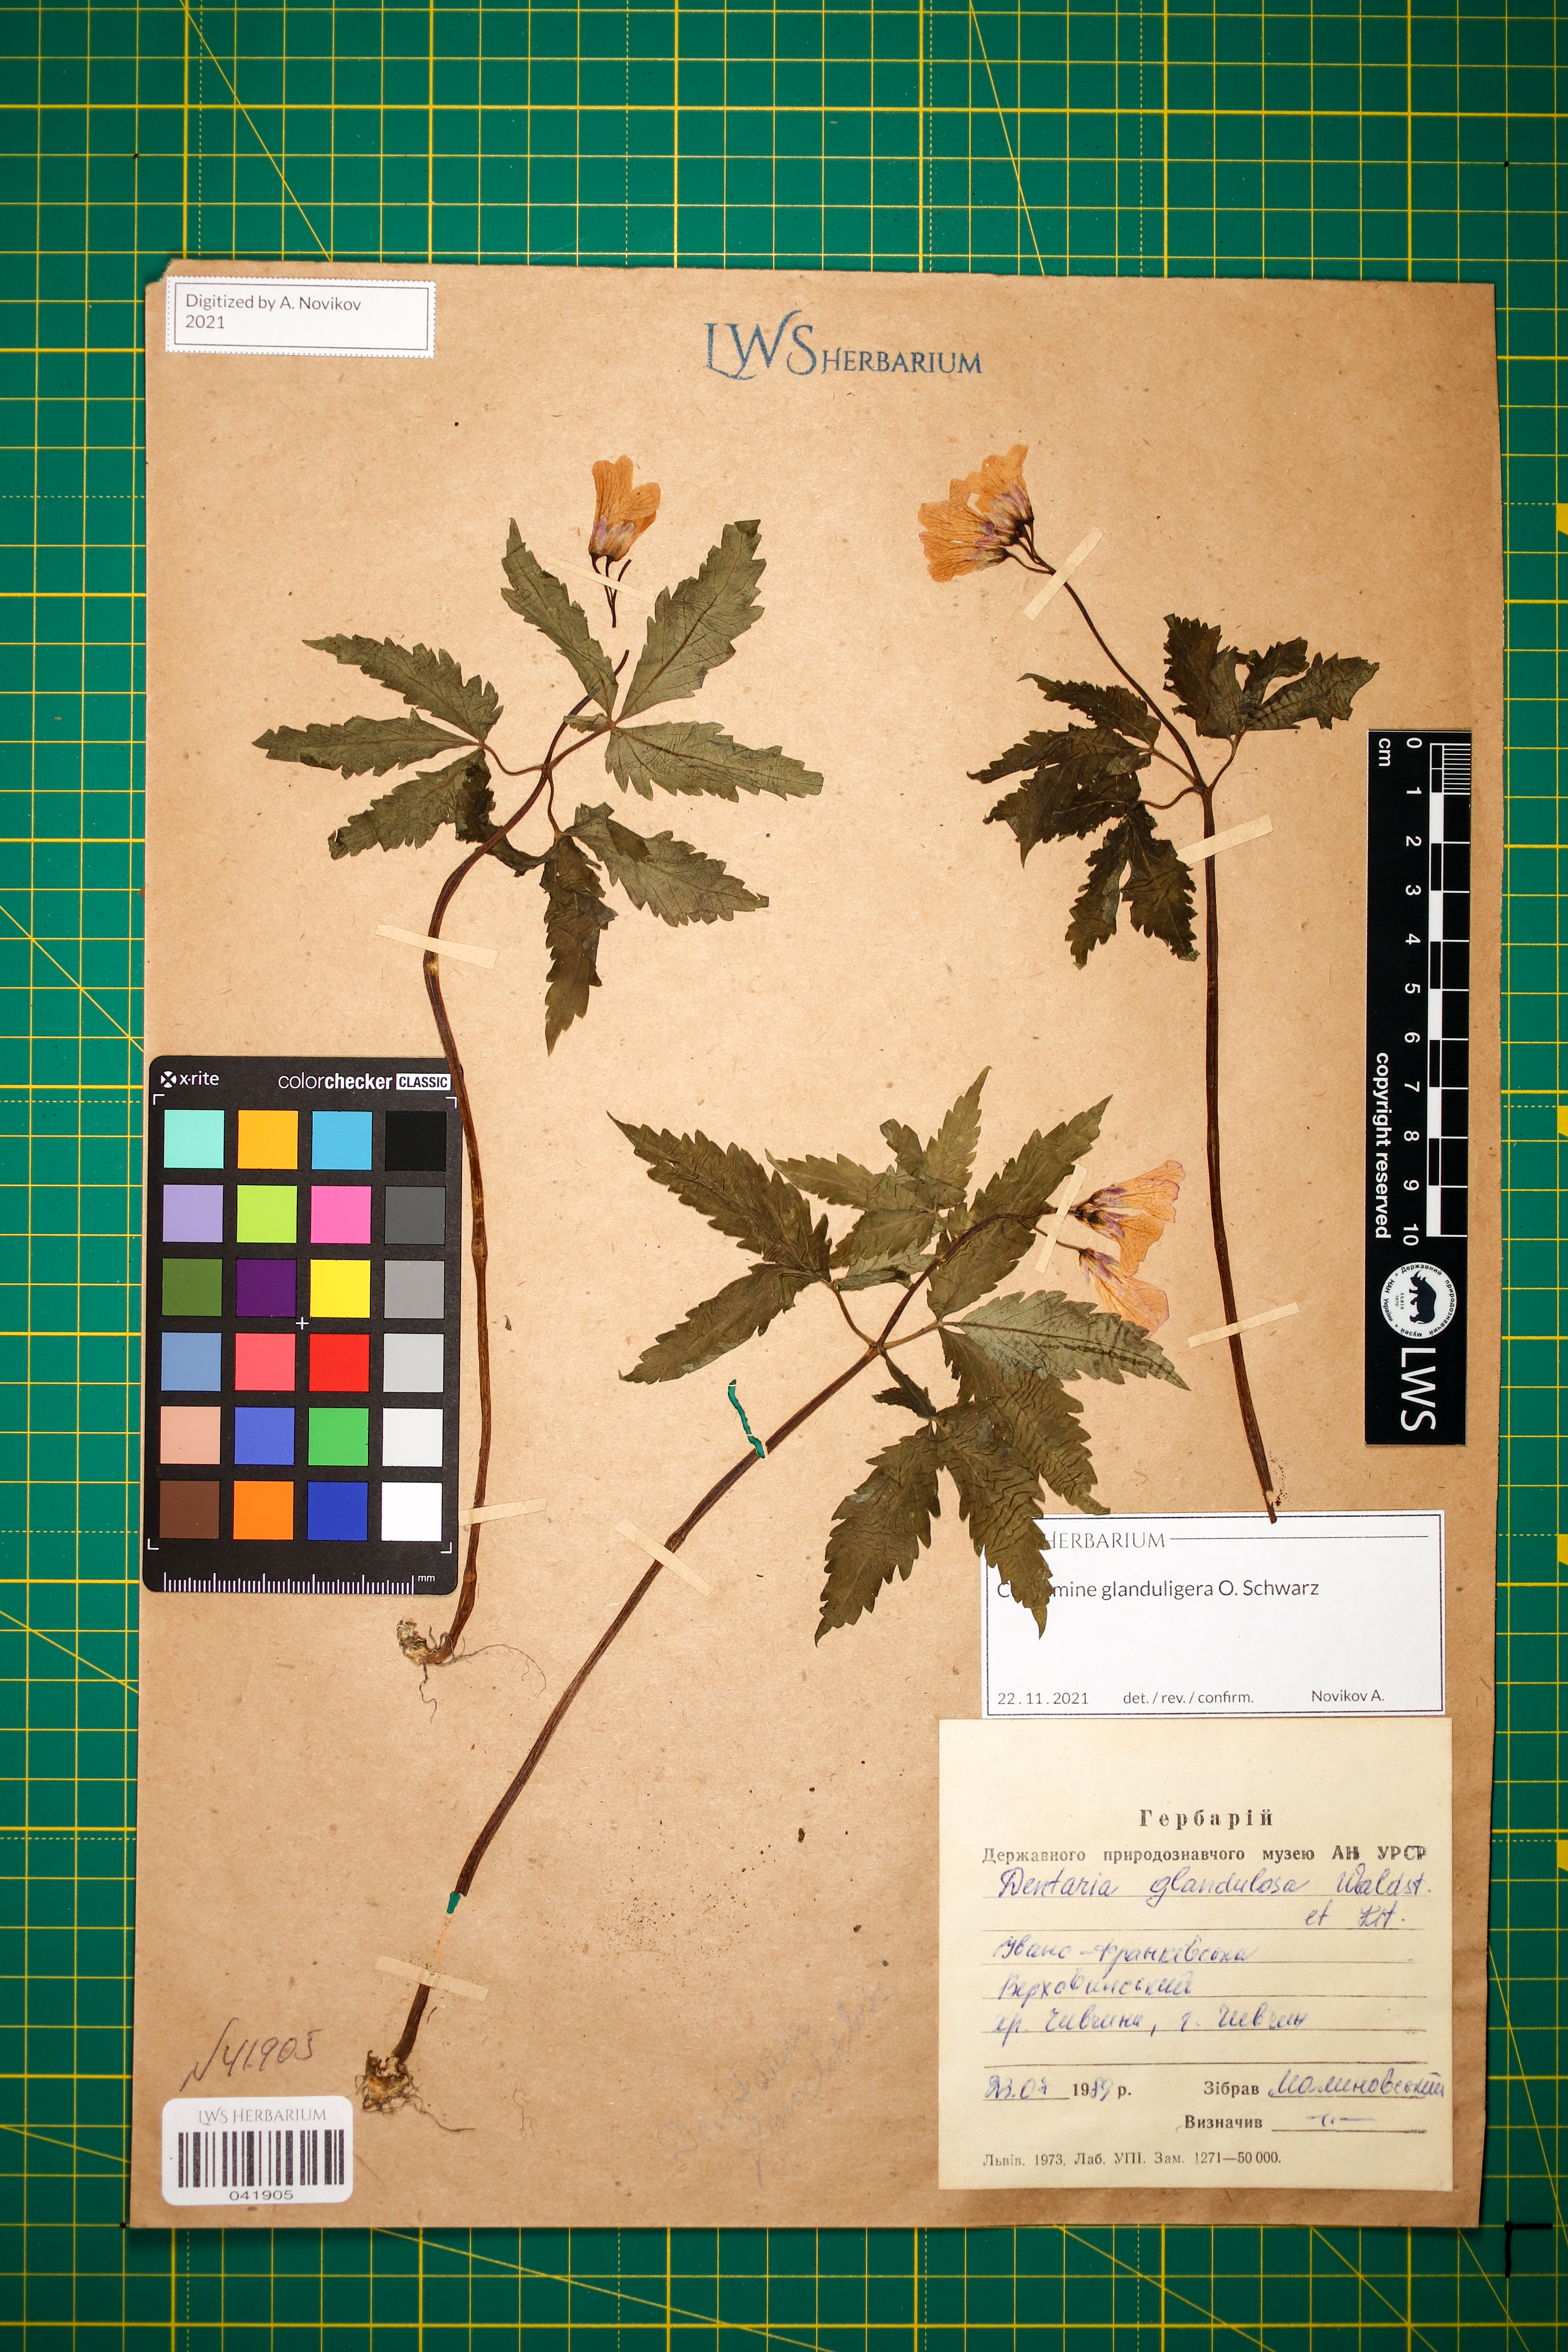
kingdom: Plantae
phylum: Tracheophyta
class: Magnoliopsida
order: Brassicales
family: Brassicaceae
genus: Cardamine
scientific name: Cardamine glanduligera
